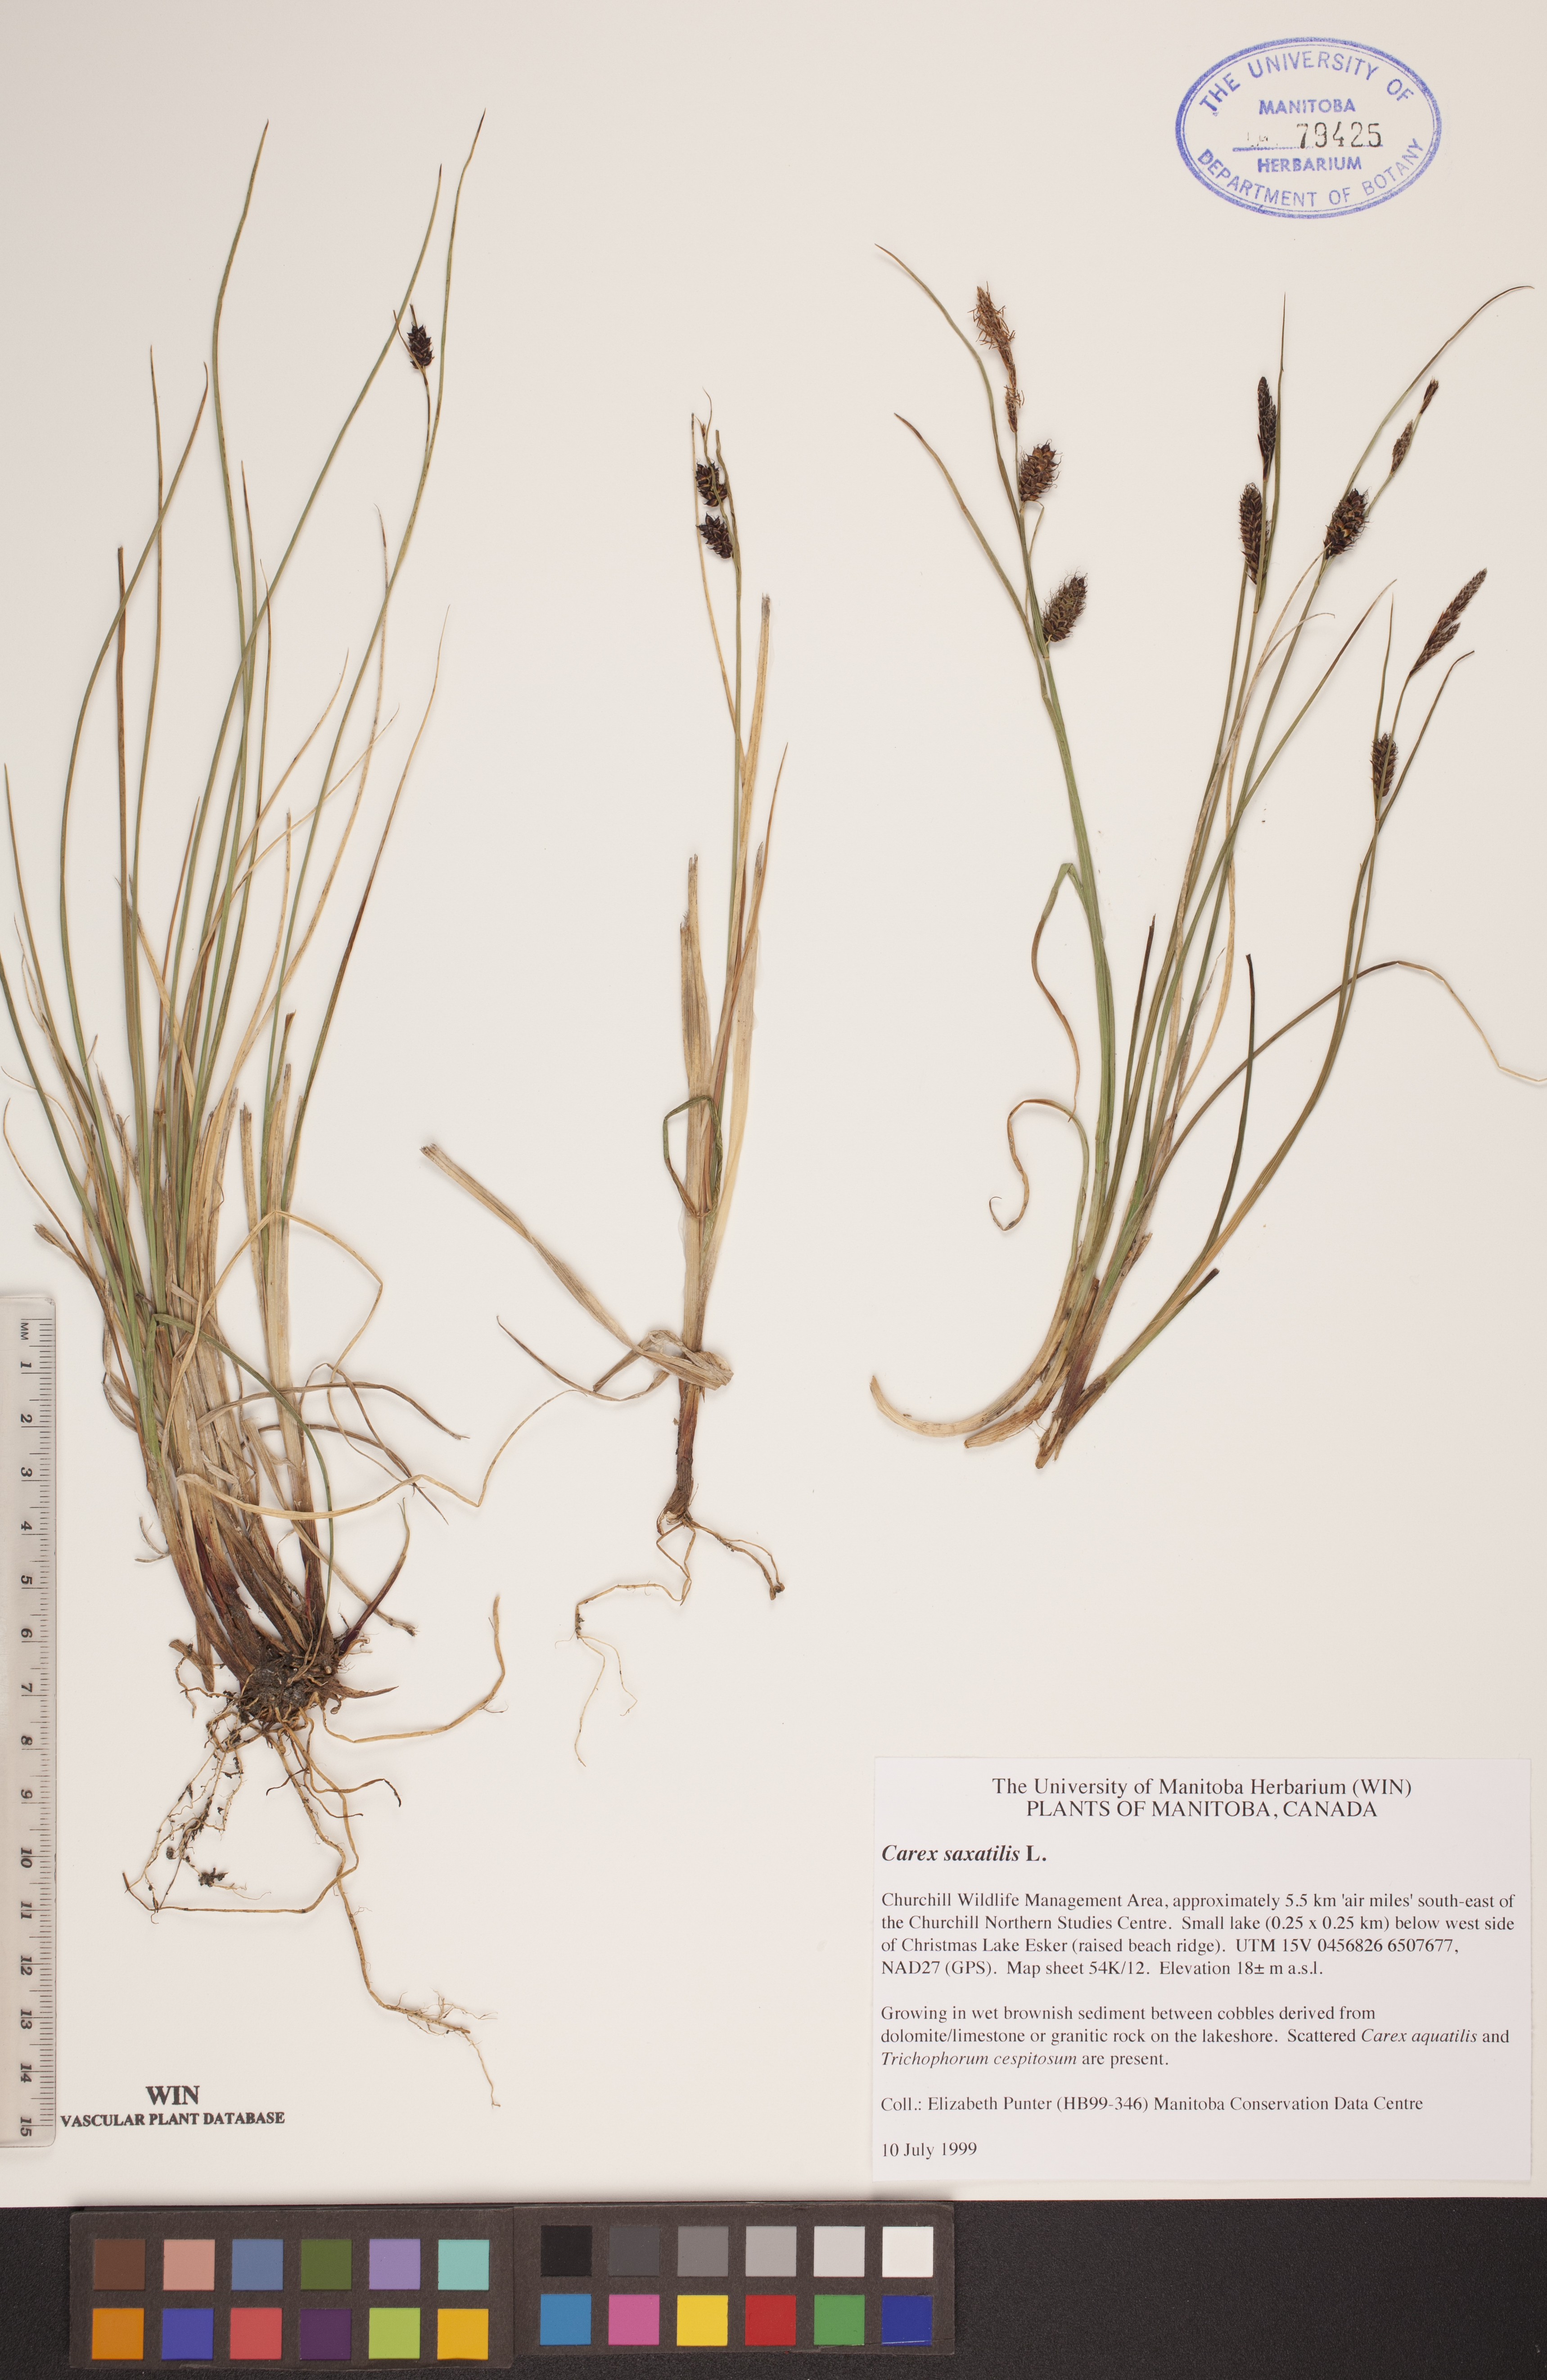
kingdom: Plantae
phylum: Tracheophyta
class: Liliopsida
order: Poales
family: Cyperaceae
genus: Carex
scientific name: Carex saxatilis
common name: Russet sedge
